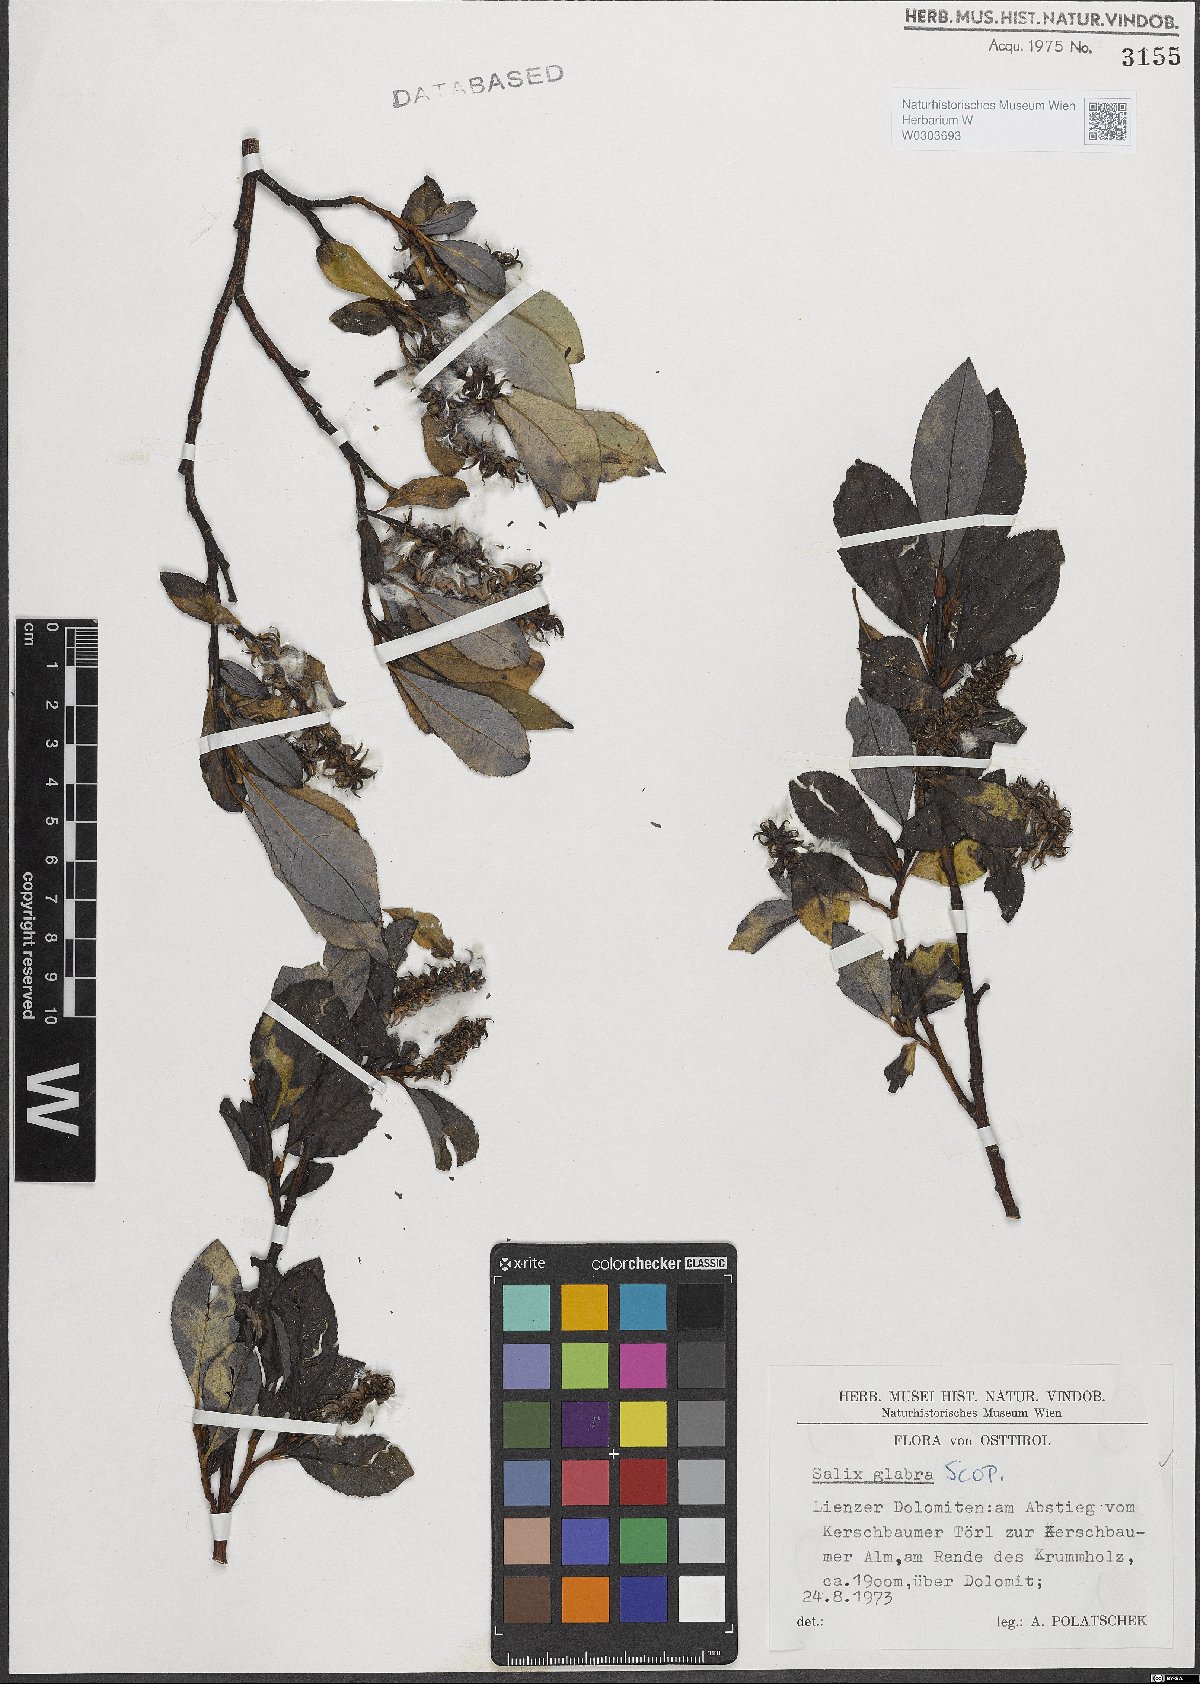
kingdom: Plantae
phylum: Tracheophyta
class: Magnoliopsida
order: Malpighiales
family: Salicaceae
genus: Salix
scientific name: Salix glabra
